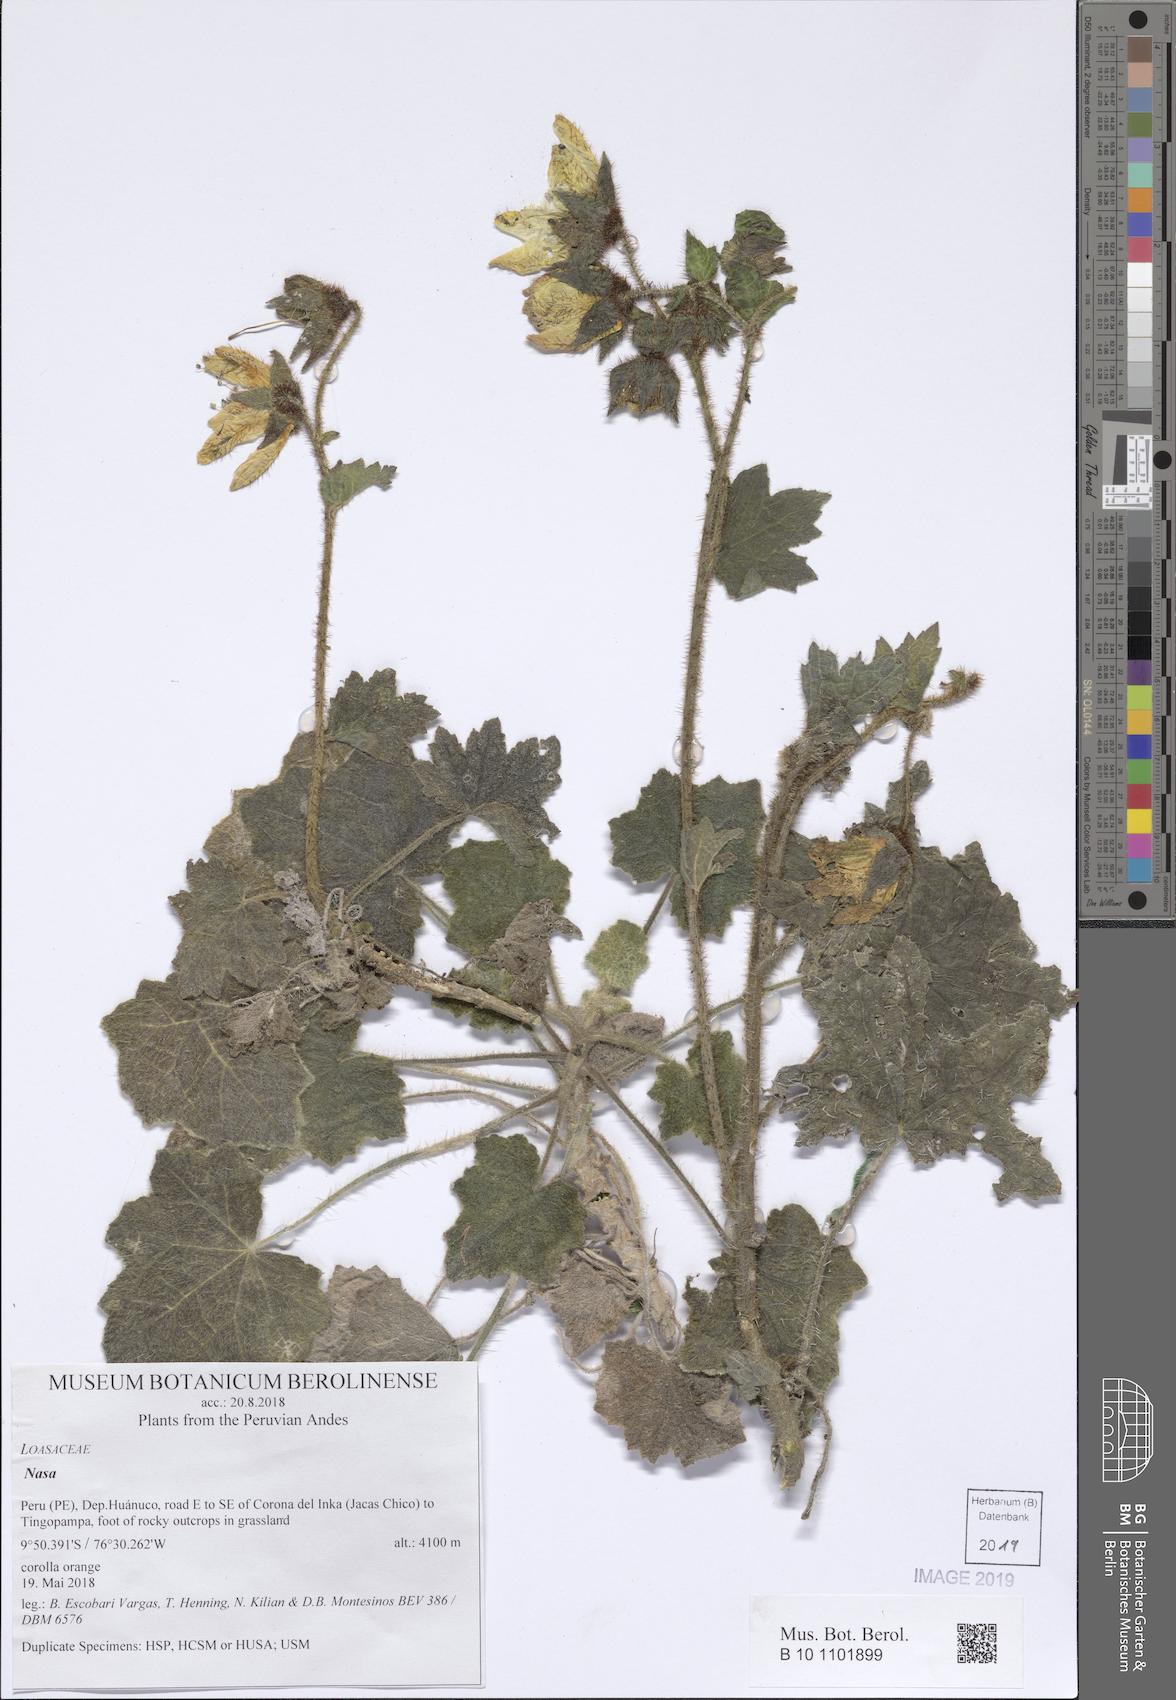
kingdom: Plantae
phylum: Tracheophyta
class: Magnoliopsida
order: Cornales
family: Loasaceae
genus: Nasa
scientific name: Nasa ranunculifolia
